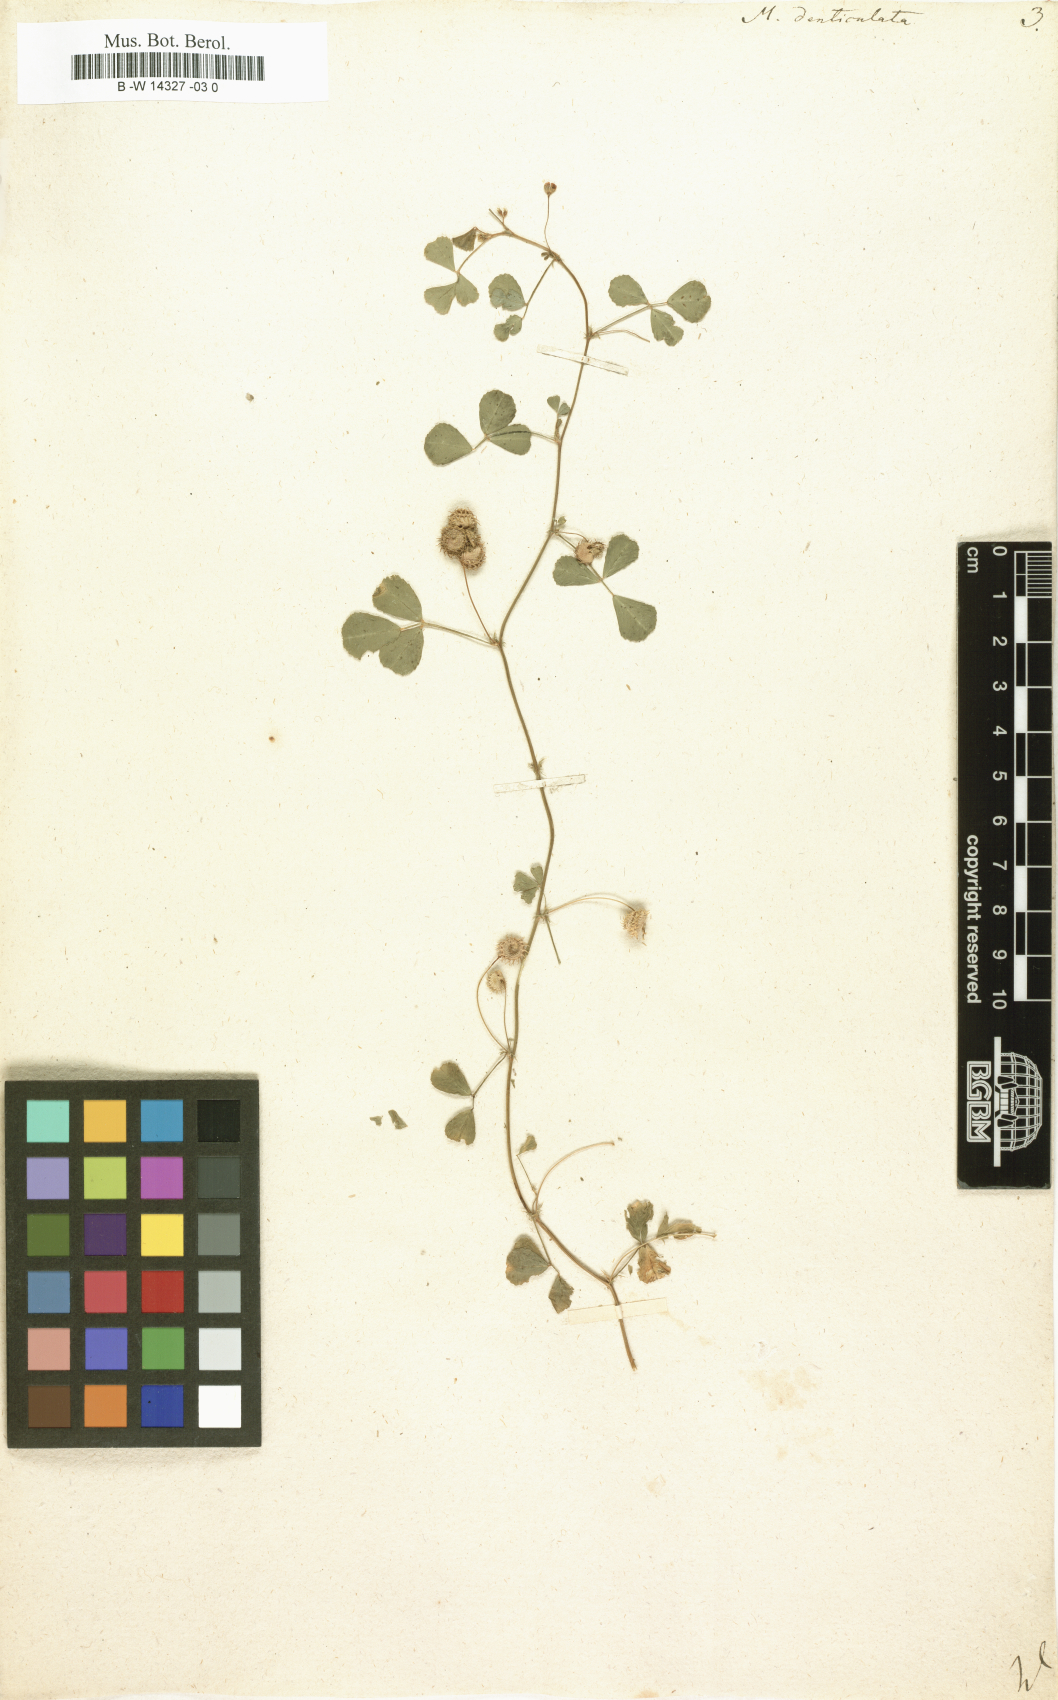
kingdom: Plantae
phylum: Tracheophyta
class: Magnoliopsida
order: Fabales
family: Fabaceae
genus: Medicago
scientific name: Medicago polymorpha
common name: Burclover
